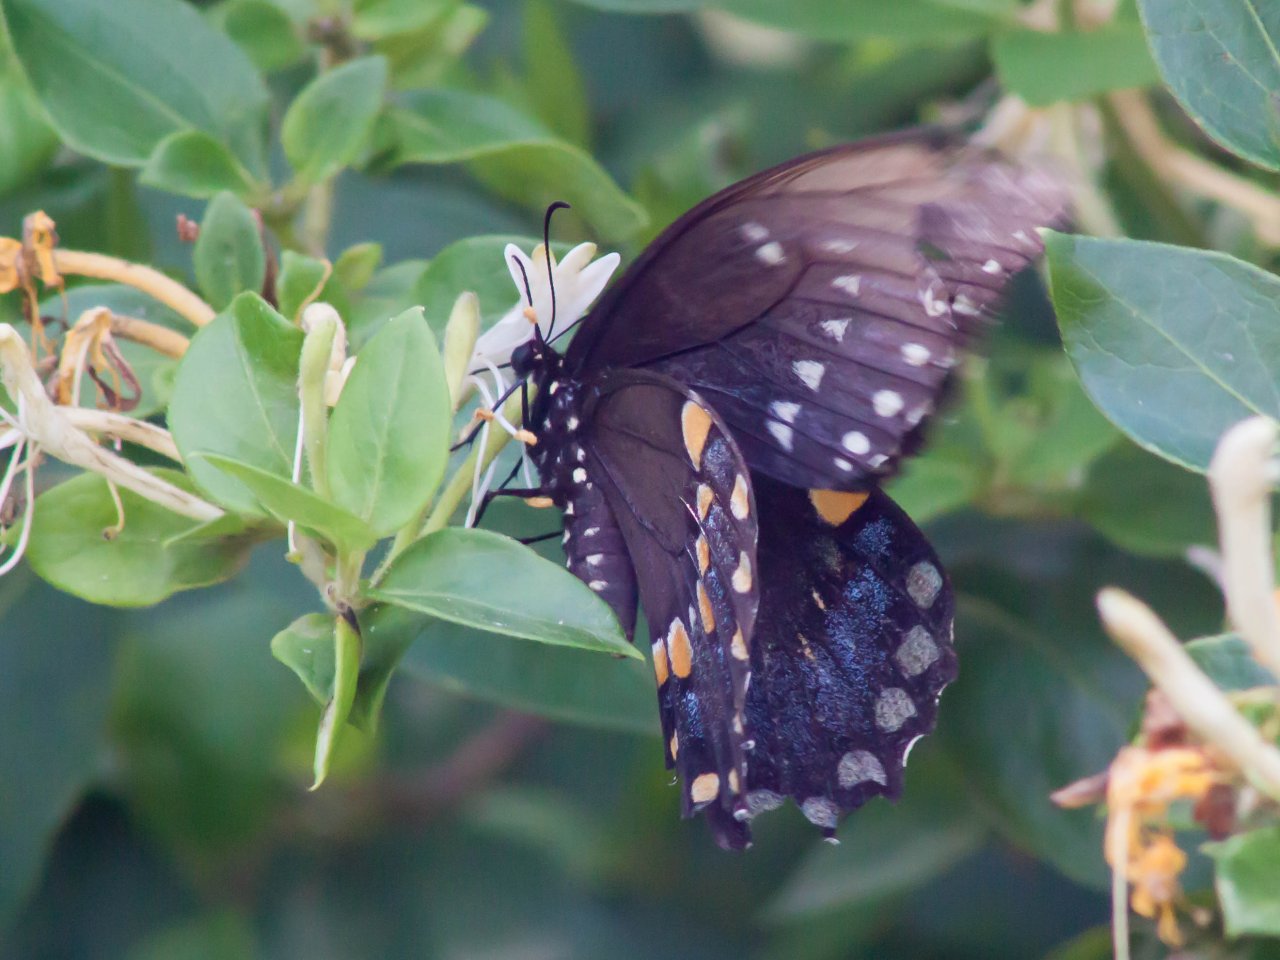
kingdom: Animalia
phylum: Arthropoda
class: Insecta
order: Lepidoptera
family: Papilionidae
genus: Pterourus
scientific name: Pterourus troilus
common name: Spicebush Swallowtail
